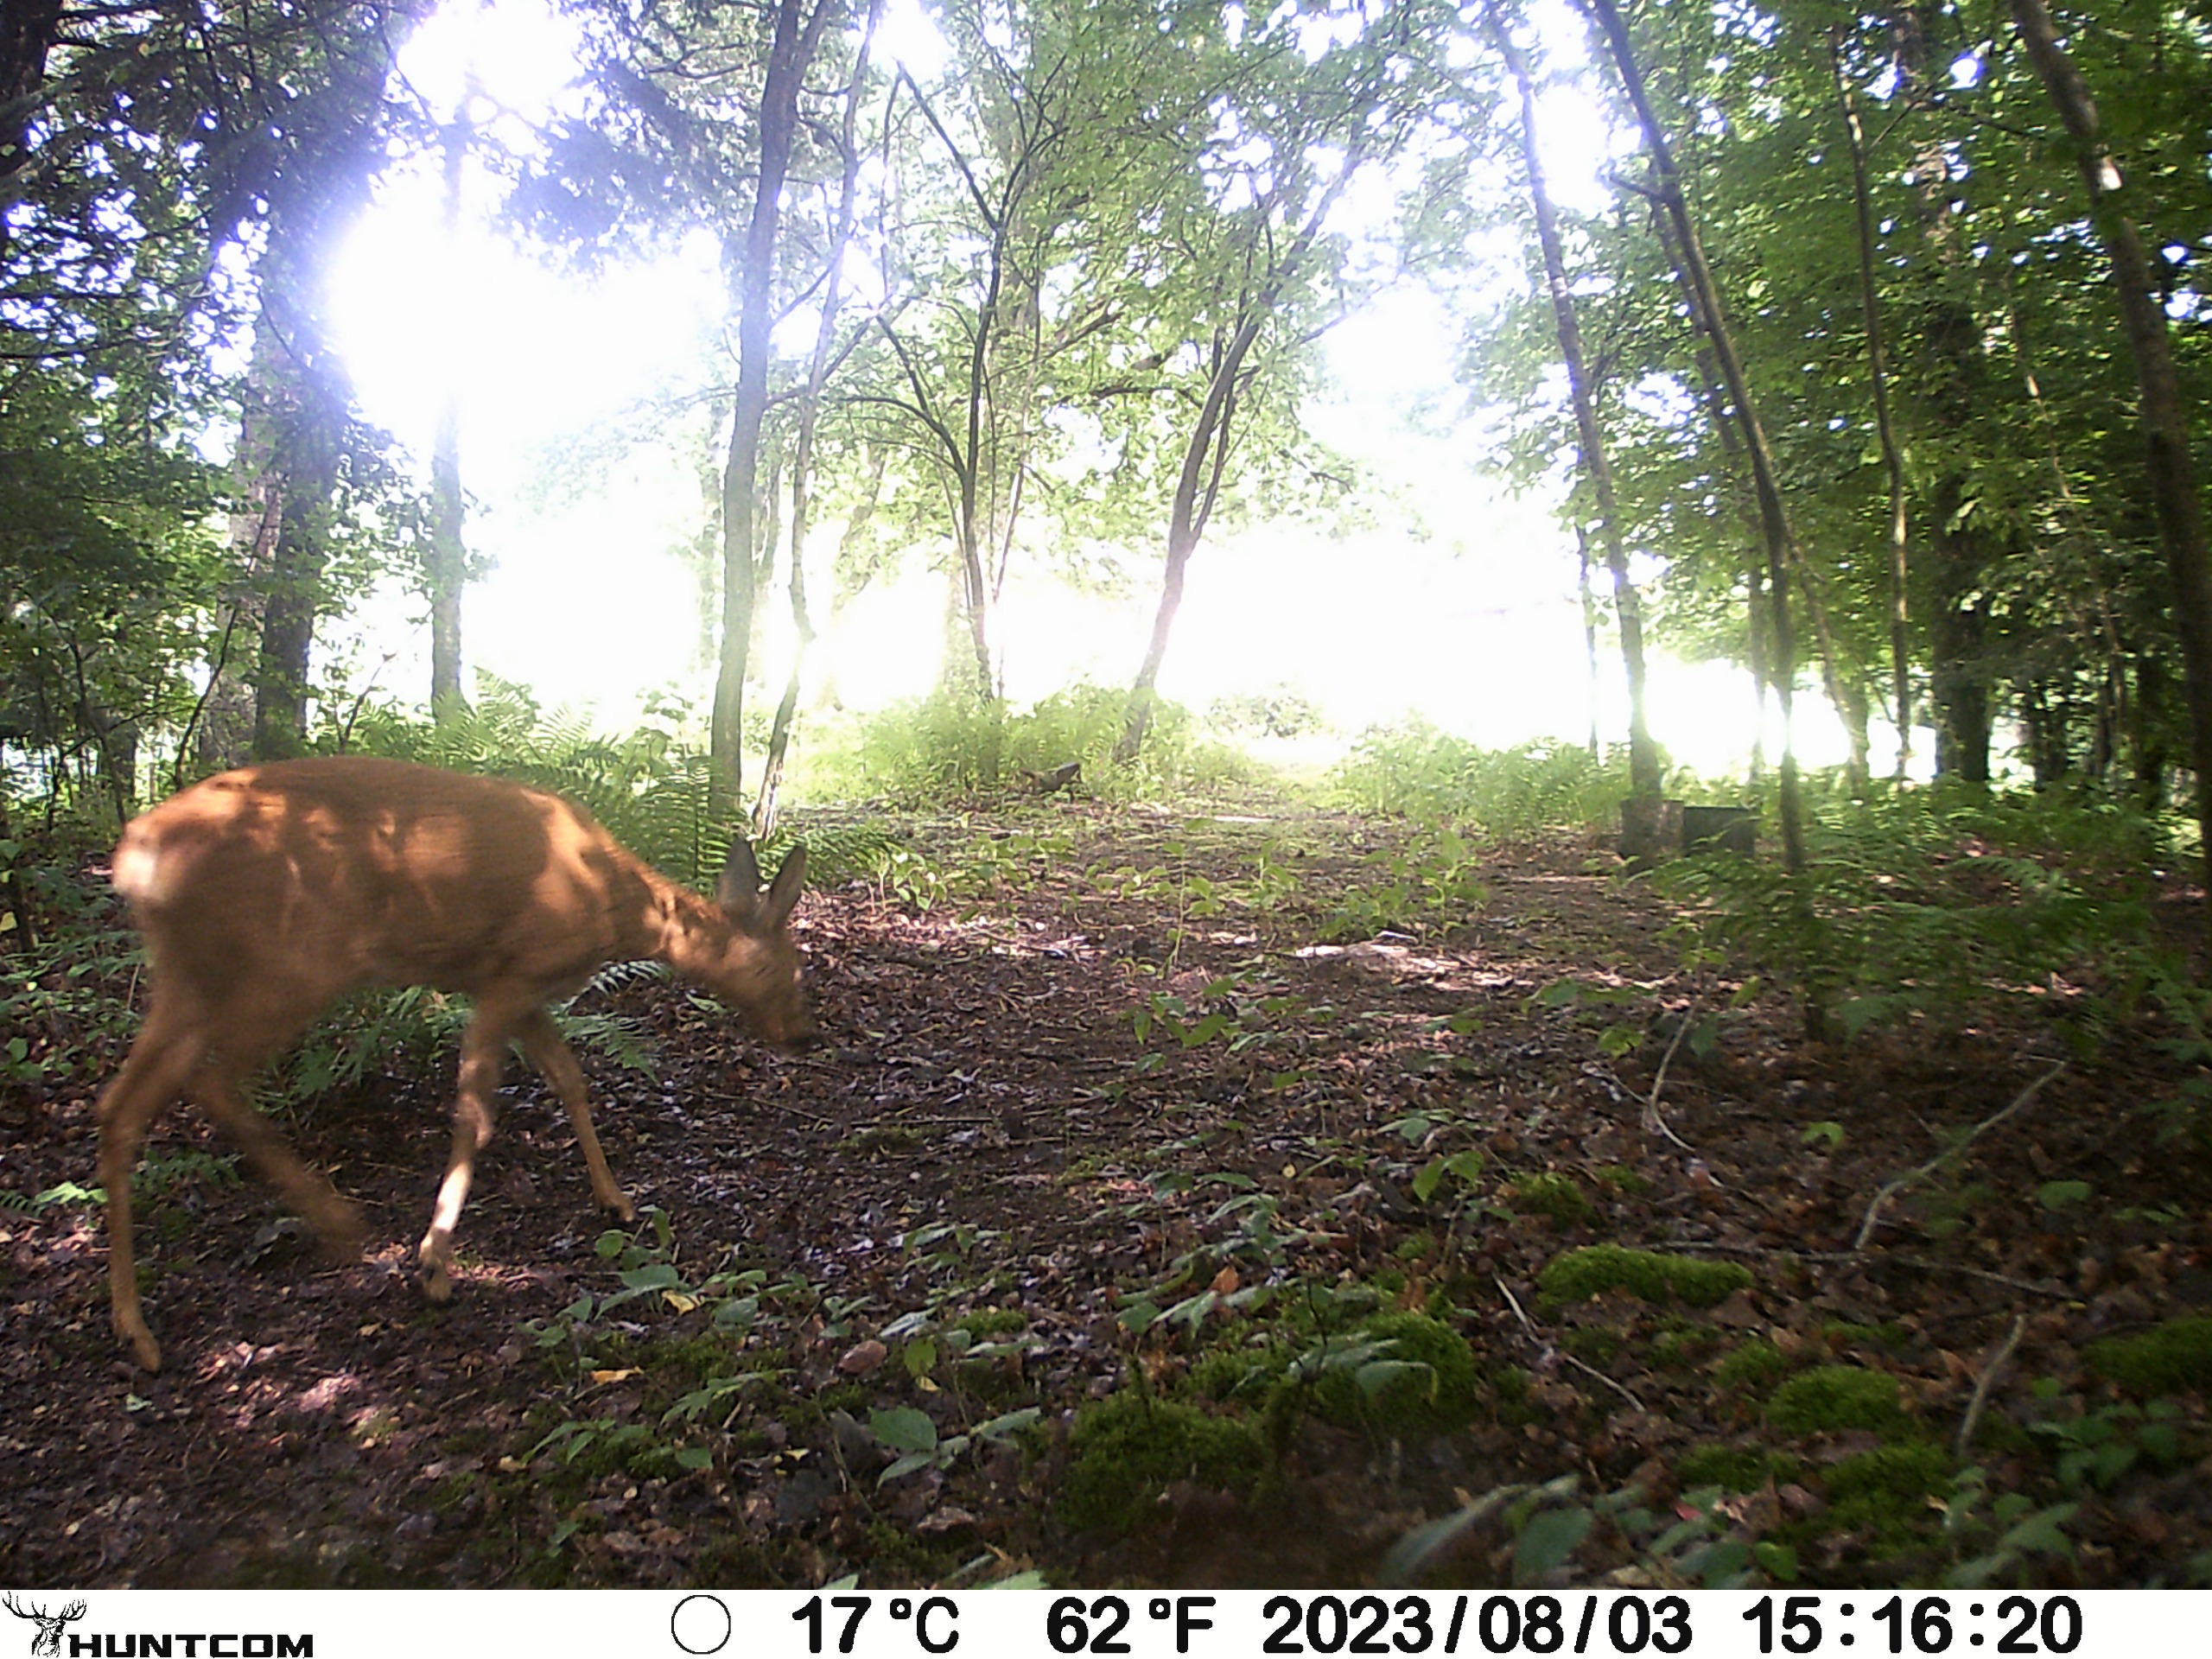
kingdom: Animalia
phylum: Chordata
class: Mammalia
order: Artiodactyla
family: Cervidae
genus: Capreolus
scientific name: Capreolus capreolus
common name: Rådyr
